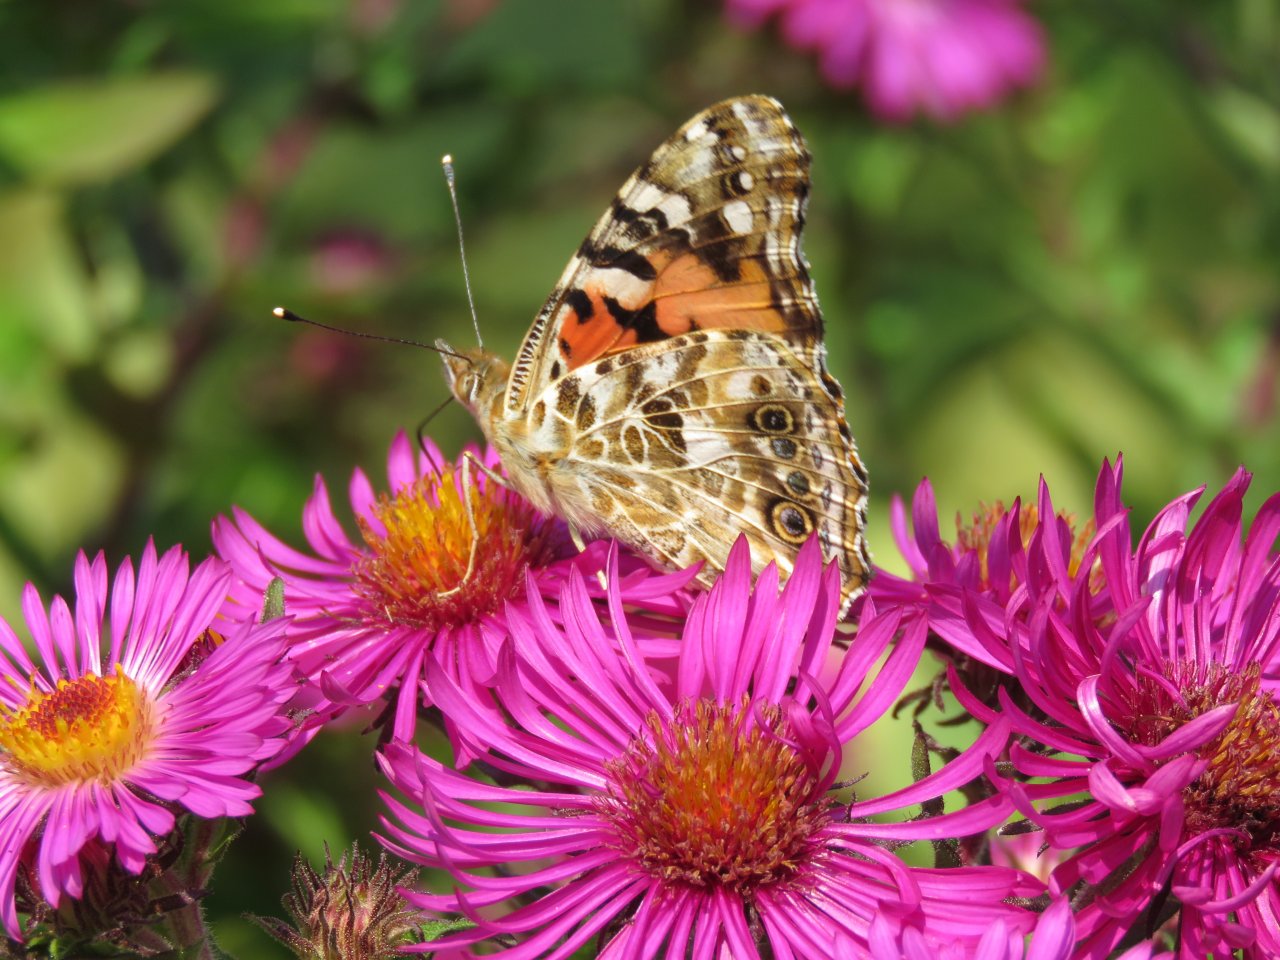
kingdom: Animalia
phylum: Arthropoda
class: Insecta
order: Lepidoptera
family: Nymphalidae
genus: Vanessa
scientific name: Vanessa cardui
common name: Painted Lady
